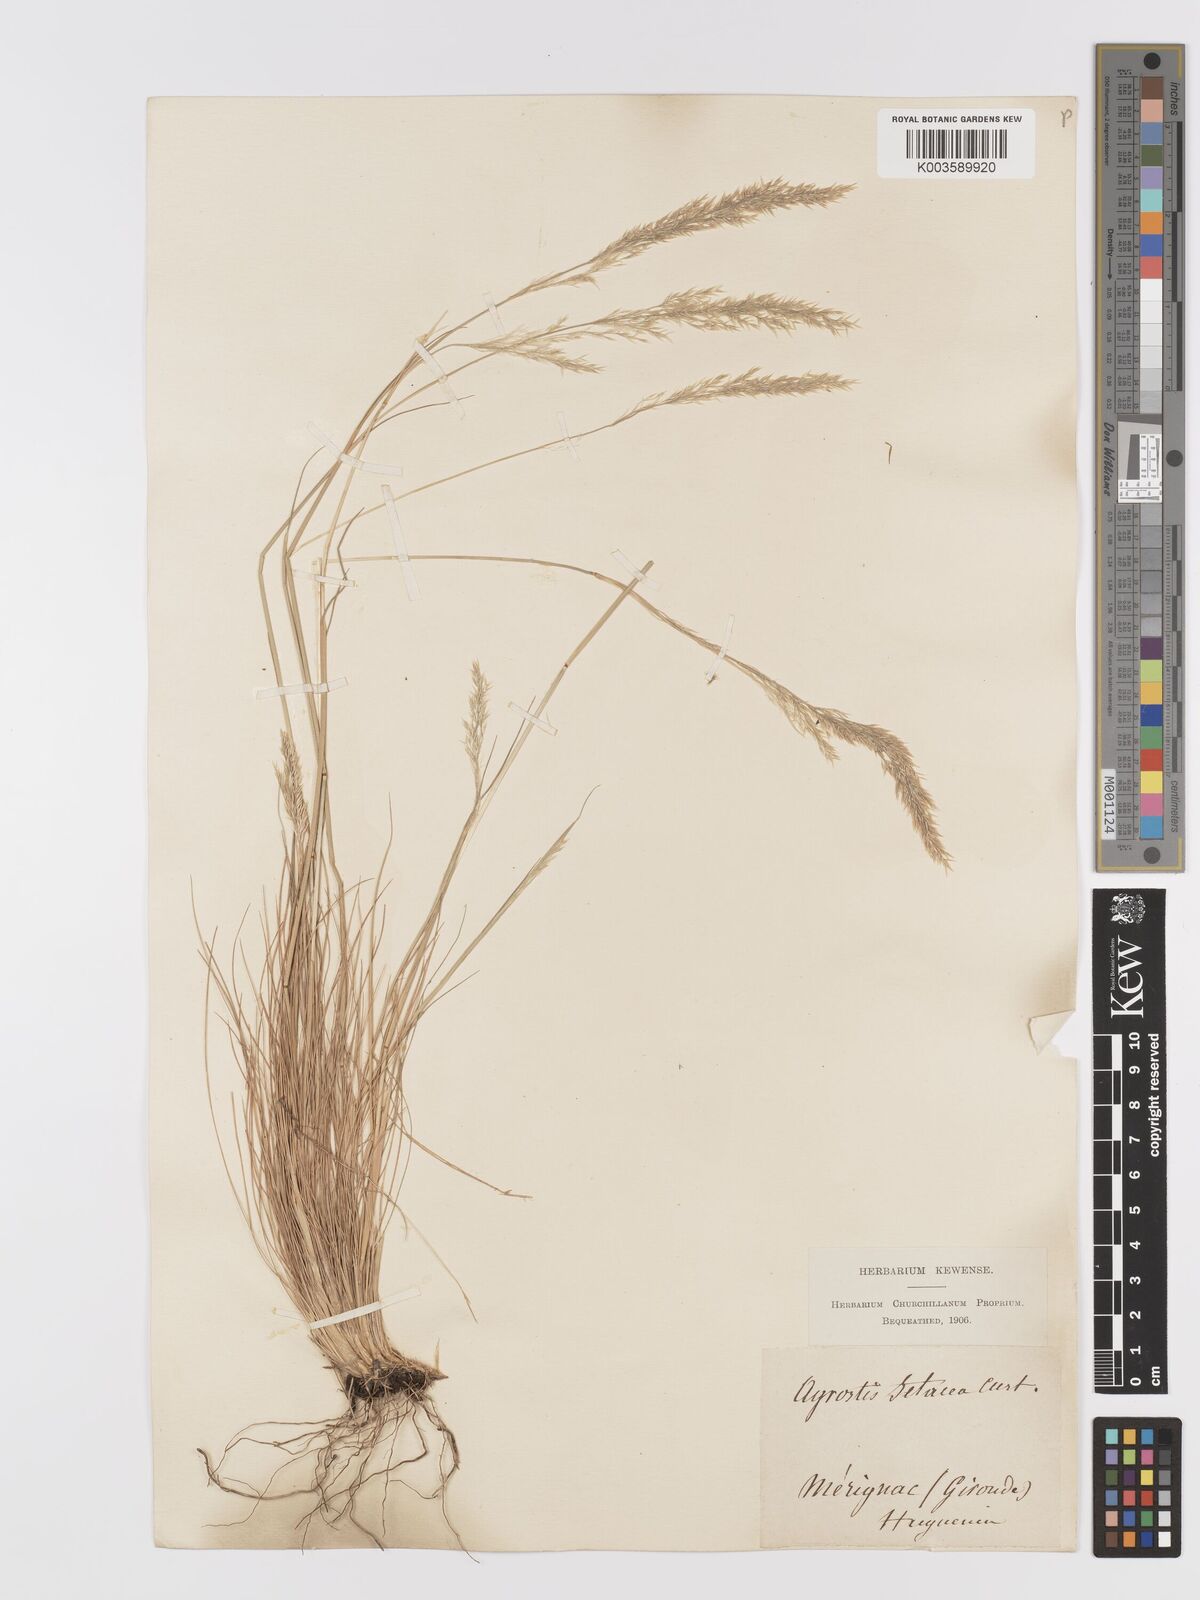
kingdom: Plantae
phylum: Tracheophyta
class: Liliopsida
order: Poales
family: Poaceae
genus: Alpagrostis
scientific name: Alpagrostis setacea
